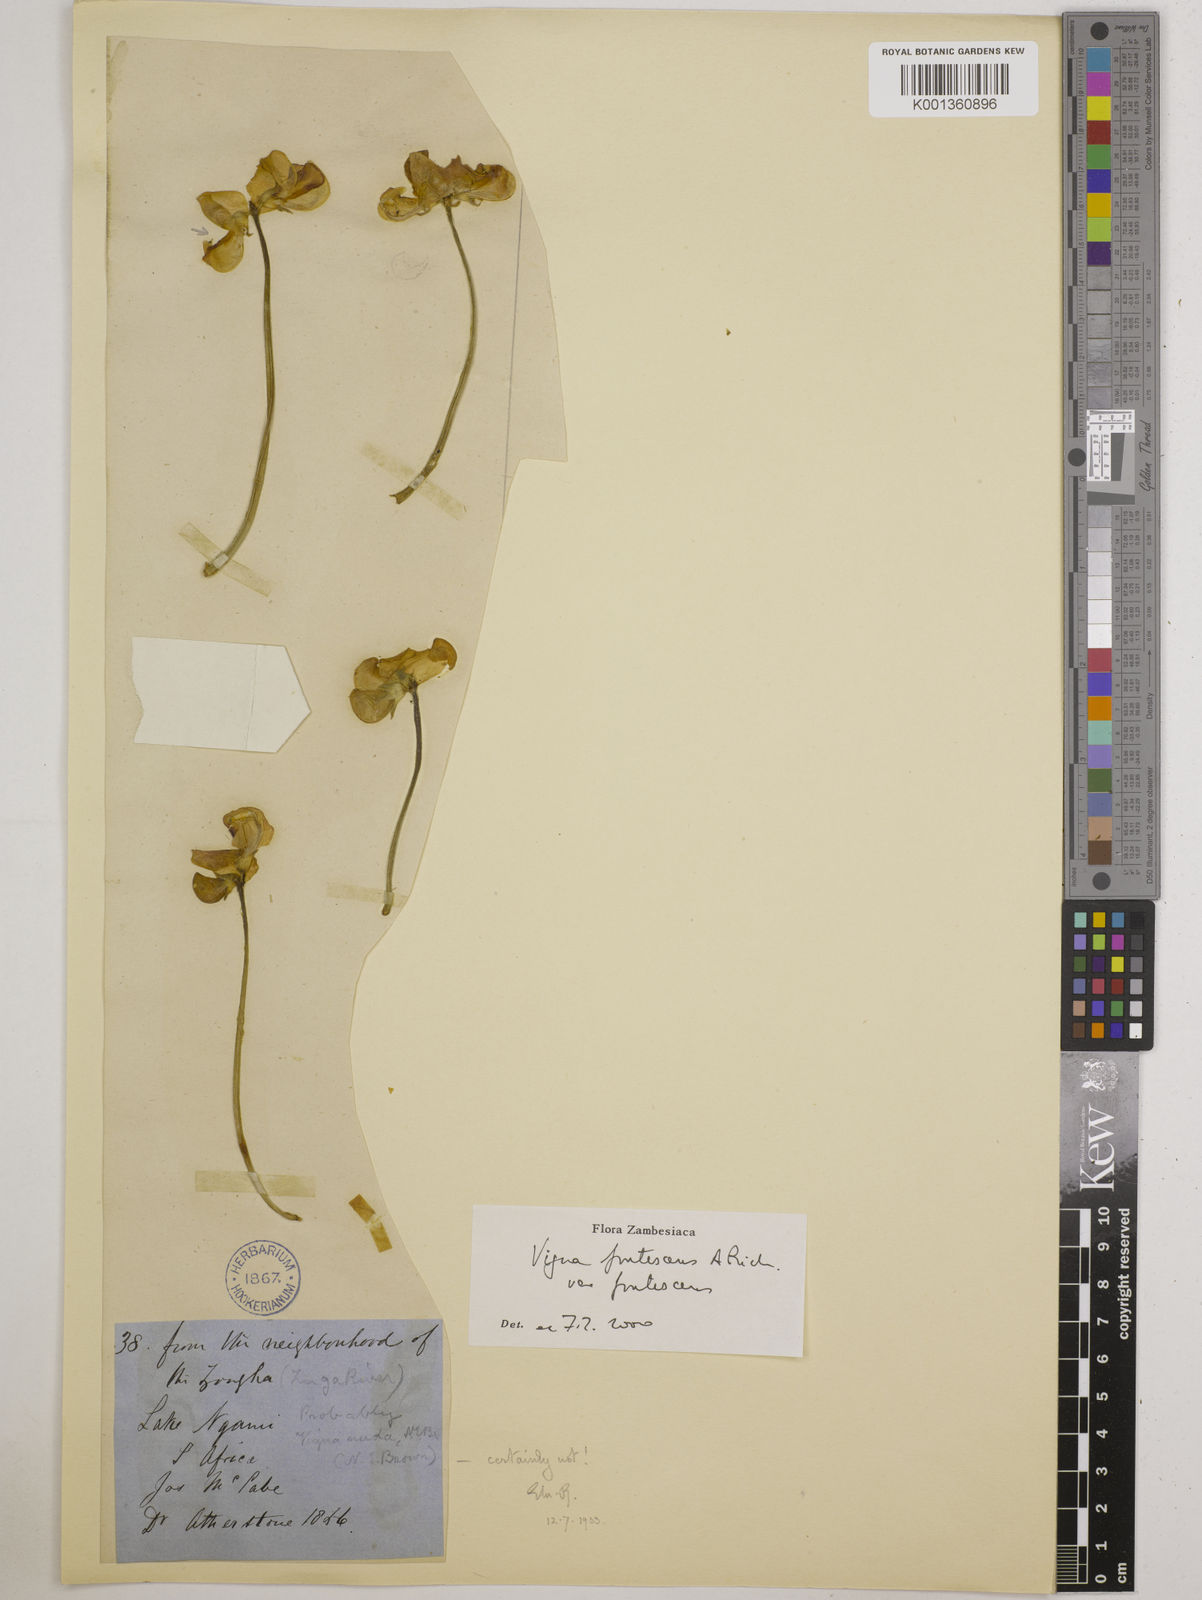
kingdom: Plantae
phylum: Tracheophyta
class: Magnoliopsida
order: Fabales
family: Fabaceae
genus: Vigna
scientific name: Vigna frutescens
